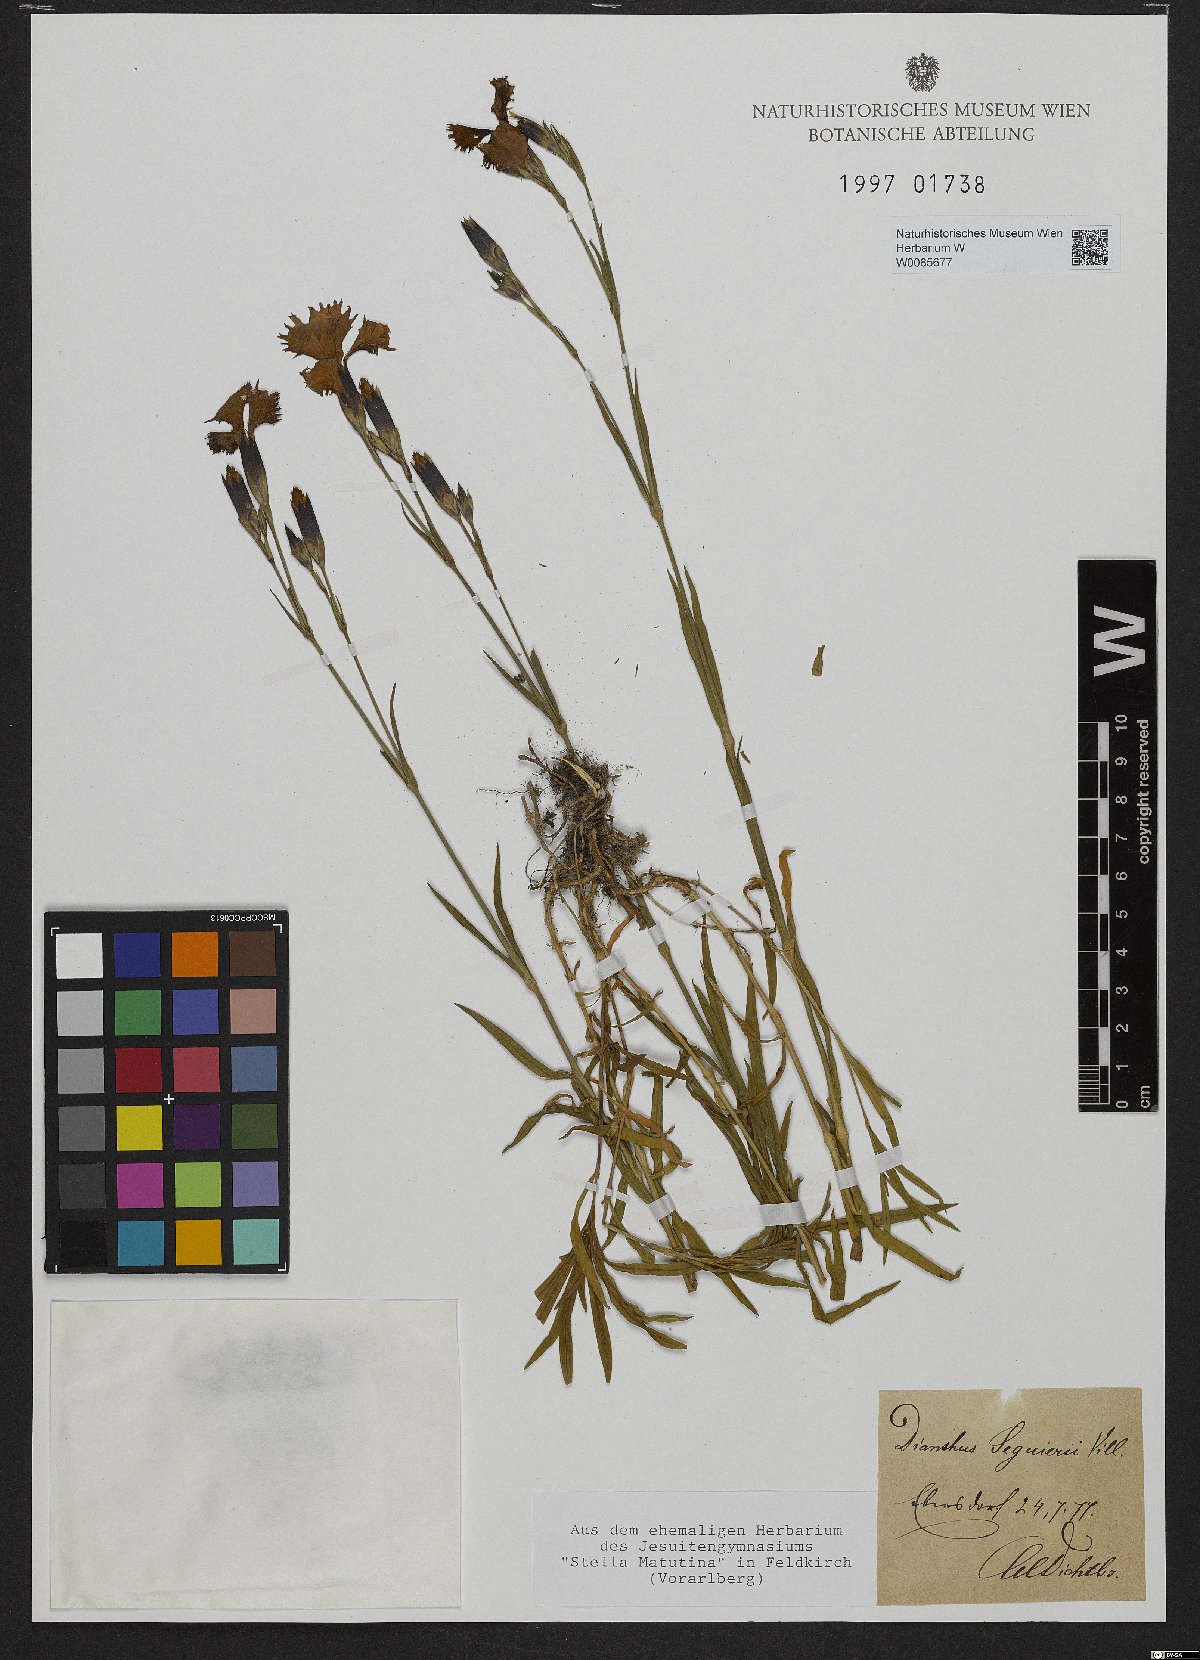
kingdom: Plantae
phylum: Tracheophyta
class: Magnoliopsida
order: Caryophyllales
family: Caryophyllaceae
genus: Dianthus
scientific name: Dianthus seguieri
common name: Ragged pink
